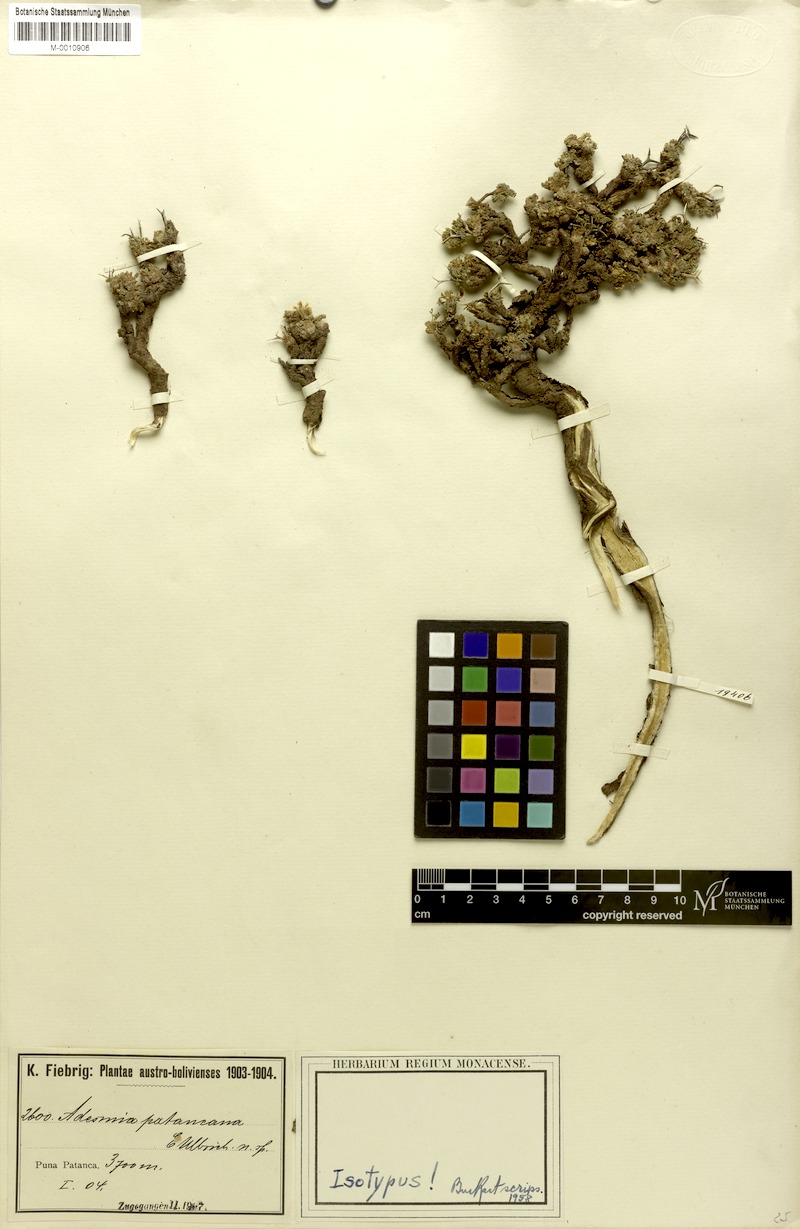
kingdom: Plantae
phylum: Tracheophyta
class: Magnoliopsida
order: Fabales
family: Fabaceae
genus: Adesmia
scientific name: Adesmia occulta
